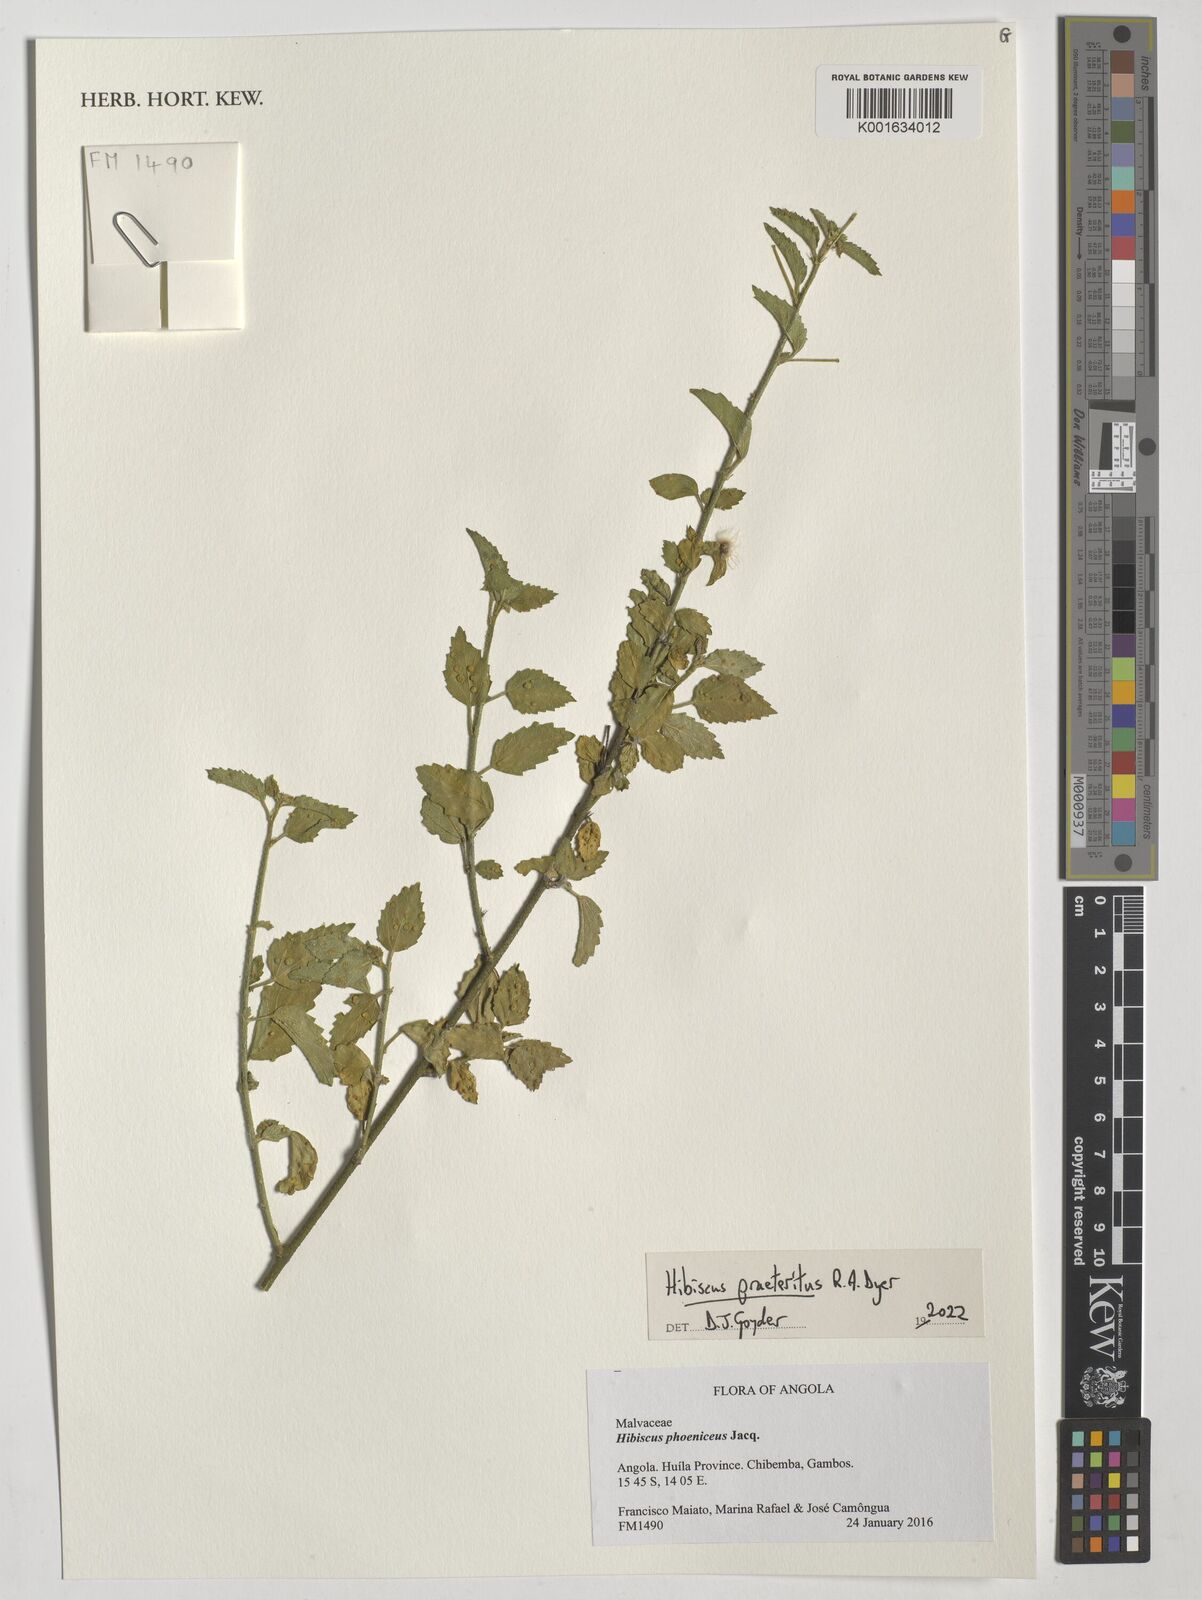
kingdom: Plantae
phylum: Tracheophyta
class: Magnoliopsida
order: Malvales
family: Malvaceae
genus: Hibiscus
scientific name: Hibiscus praeteritus
